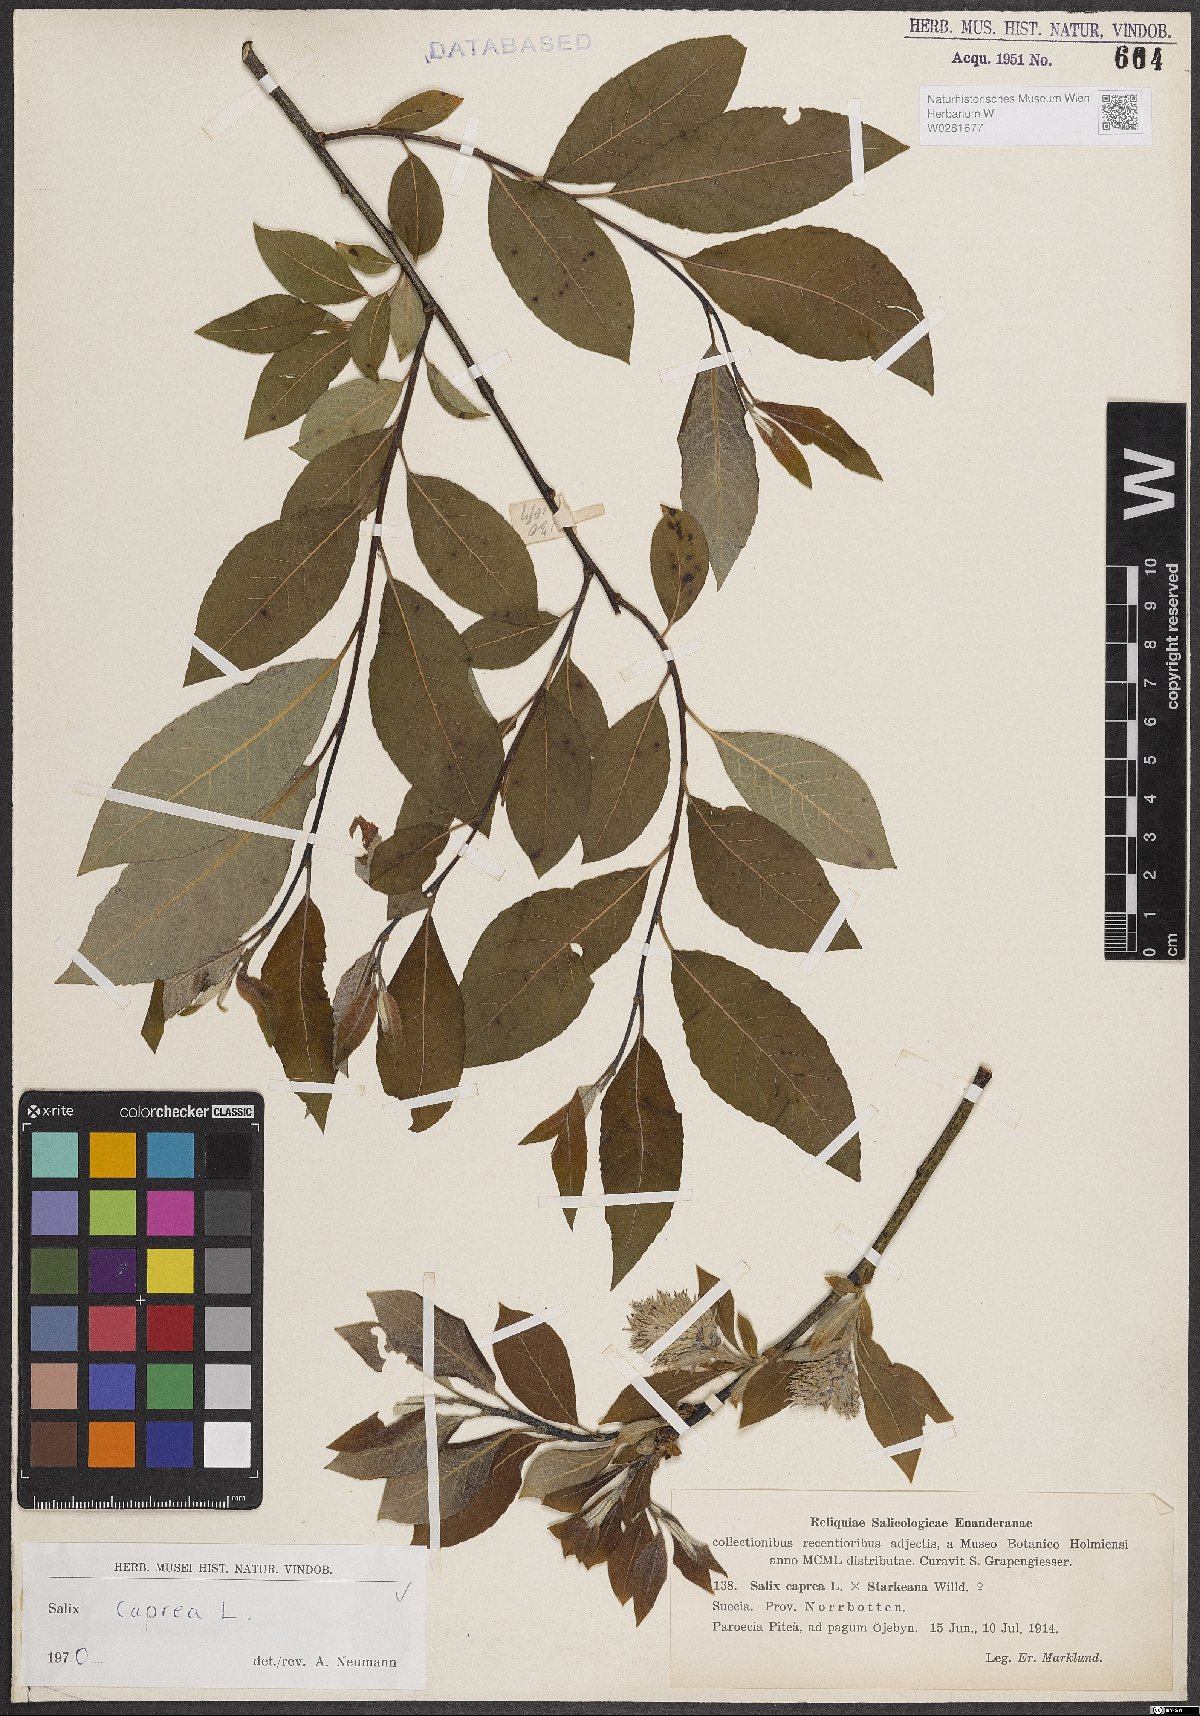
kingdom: Plantae
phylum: Tracheophyta
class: Magnoliopsida
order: Malpighiales
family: Salicaceae
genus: Salix
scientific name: Salix caprea
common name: Goat willow
